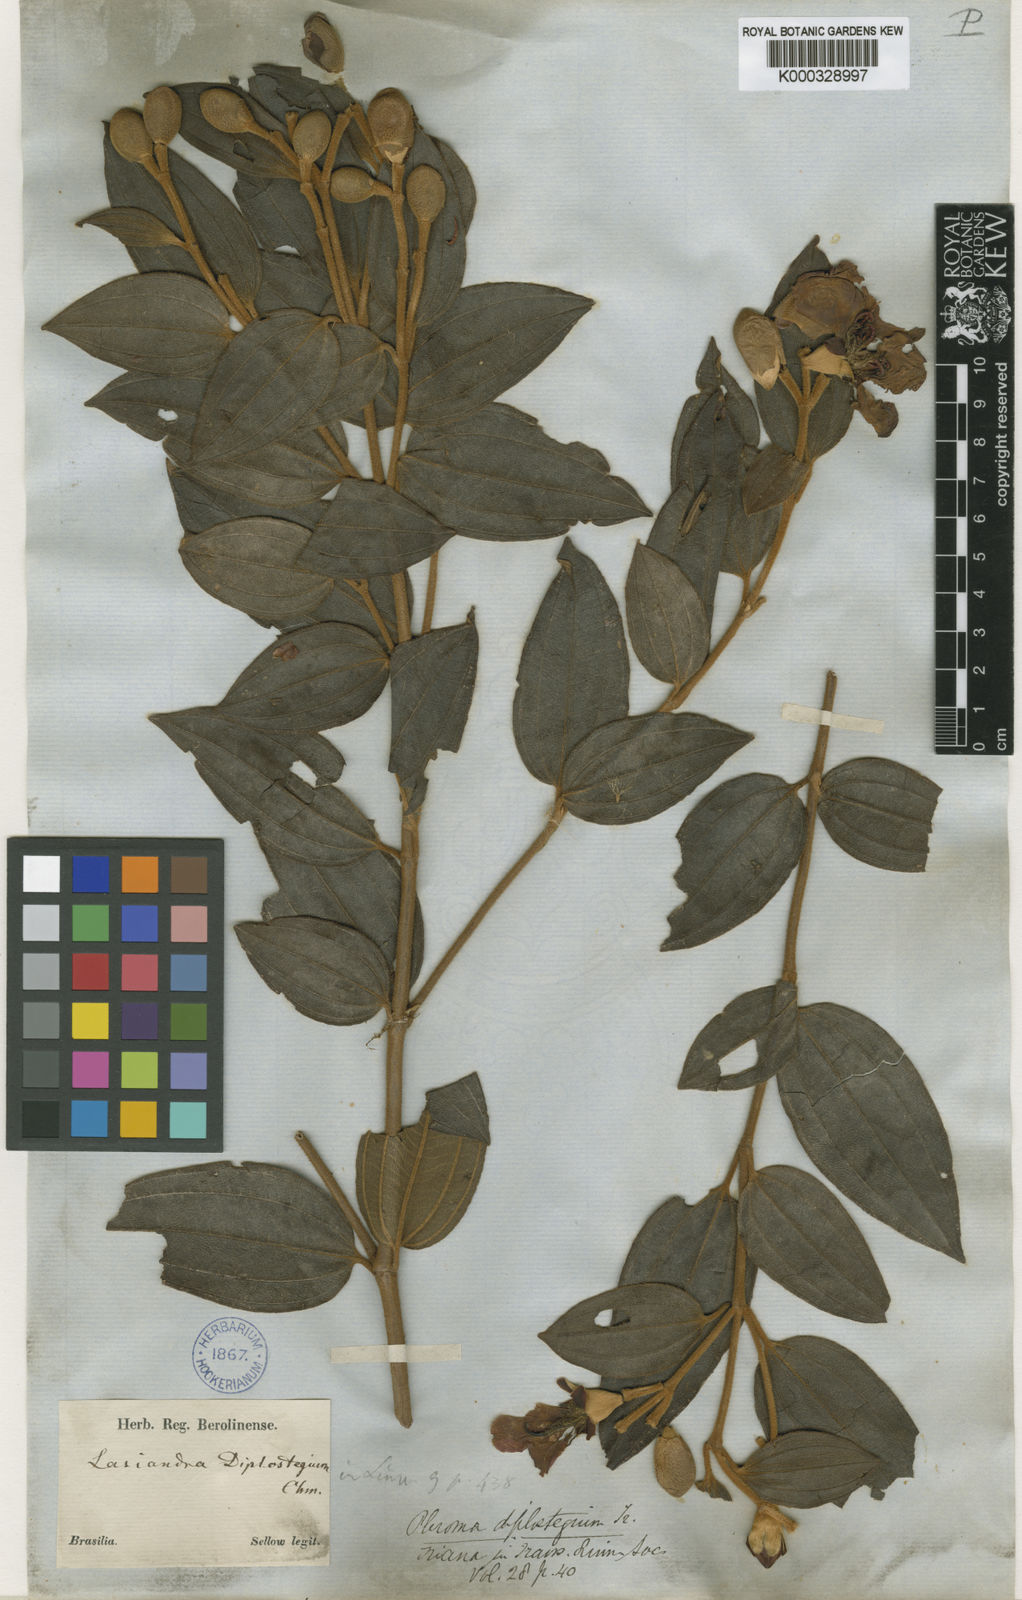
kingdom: Plantae
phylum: Tracheophyta
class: Magnoliopsida
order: Myrtales
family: Melastomataceae
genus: Pleroma
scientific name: Pleroma canescens
